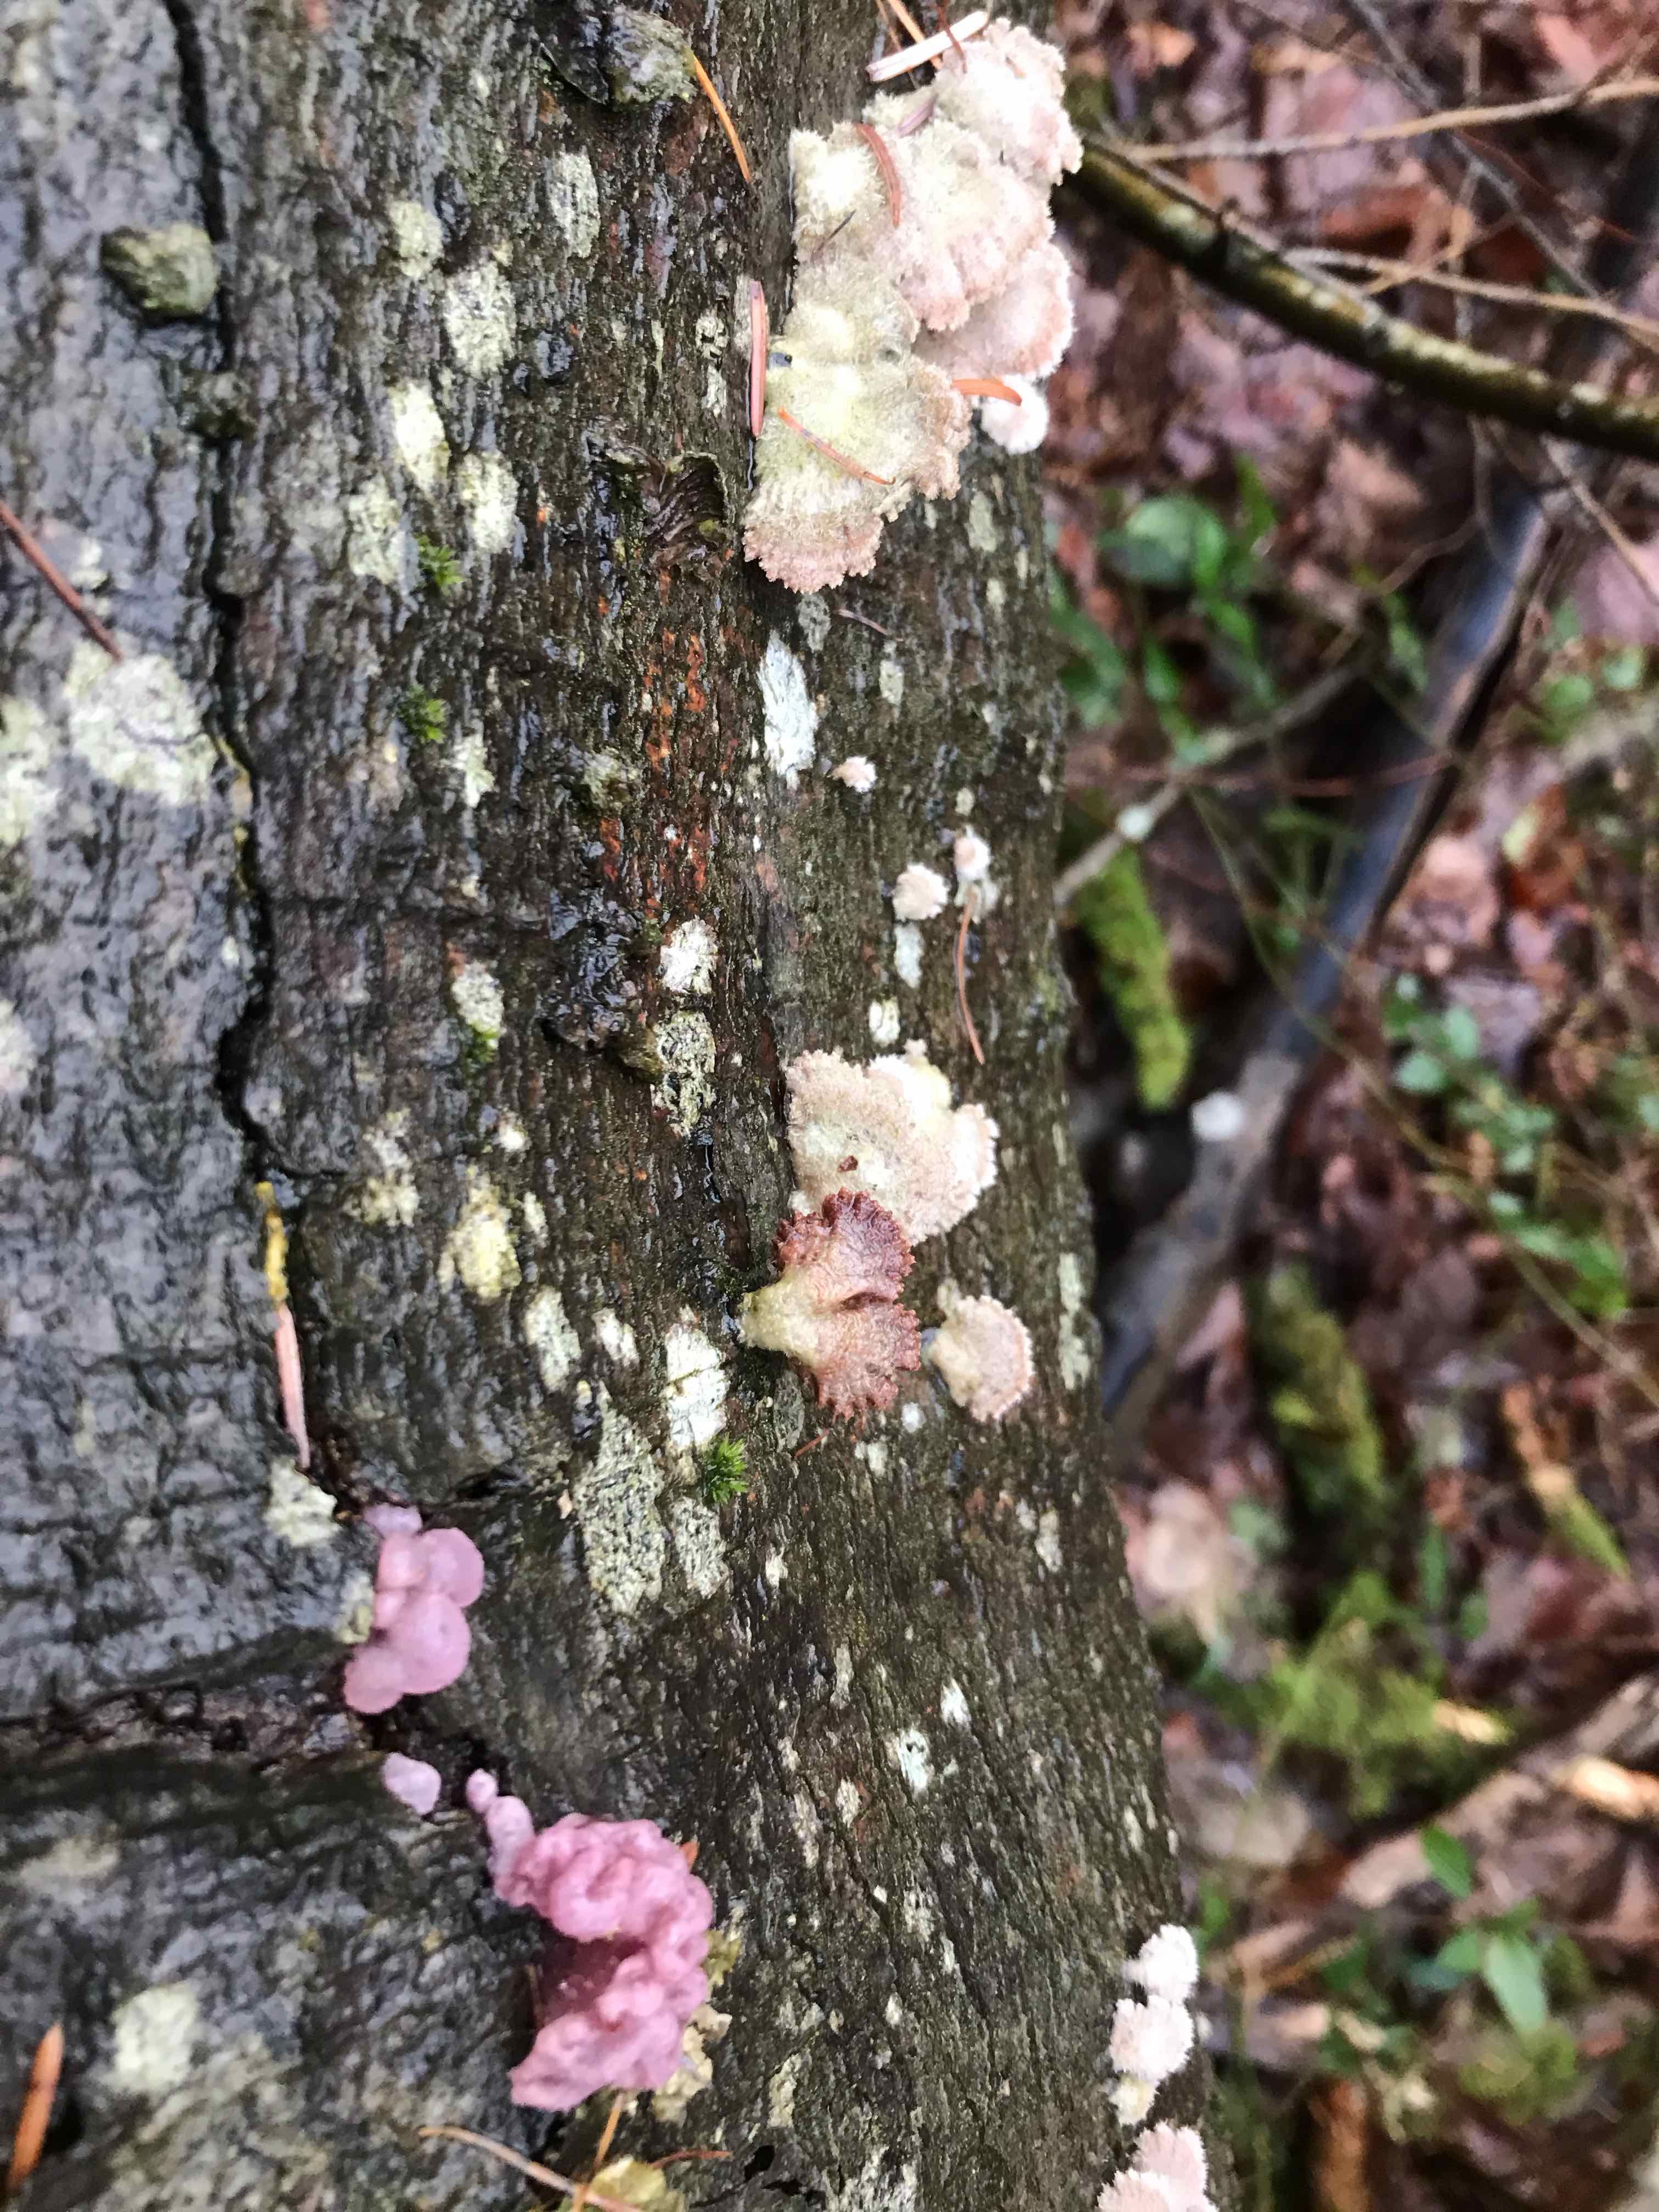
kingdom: Fungi
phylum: Basidiomycota
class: Agaricomycetes
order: Agaricales
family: Schizophyllaceae
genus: Schizophyllum
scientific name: Schizophyllum commune
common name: kløvblad
